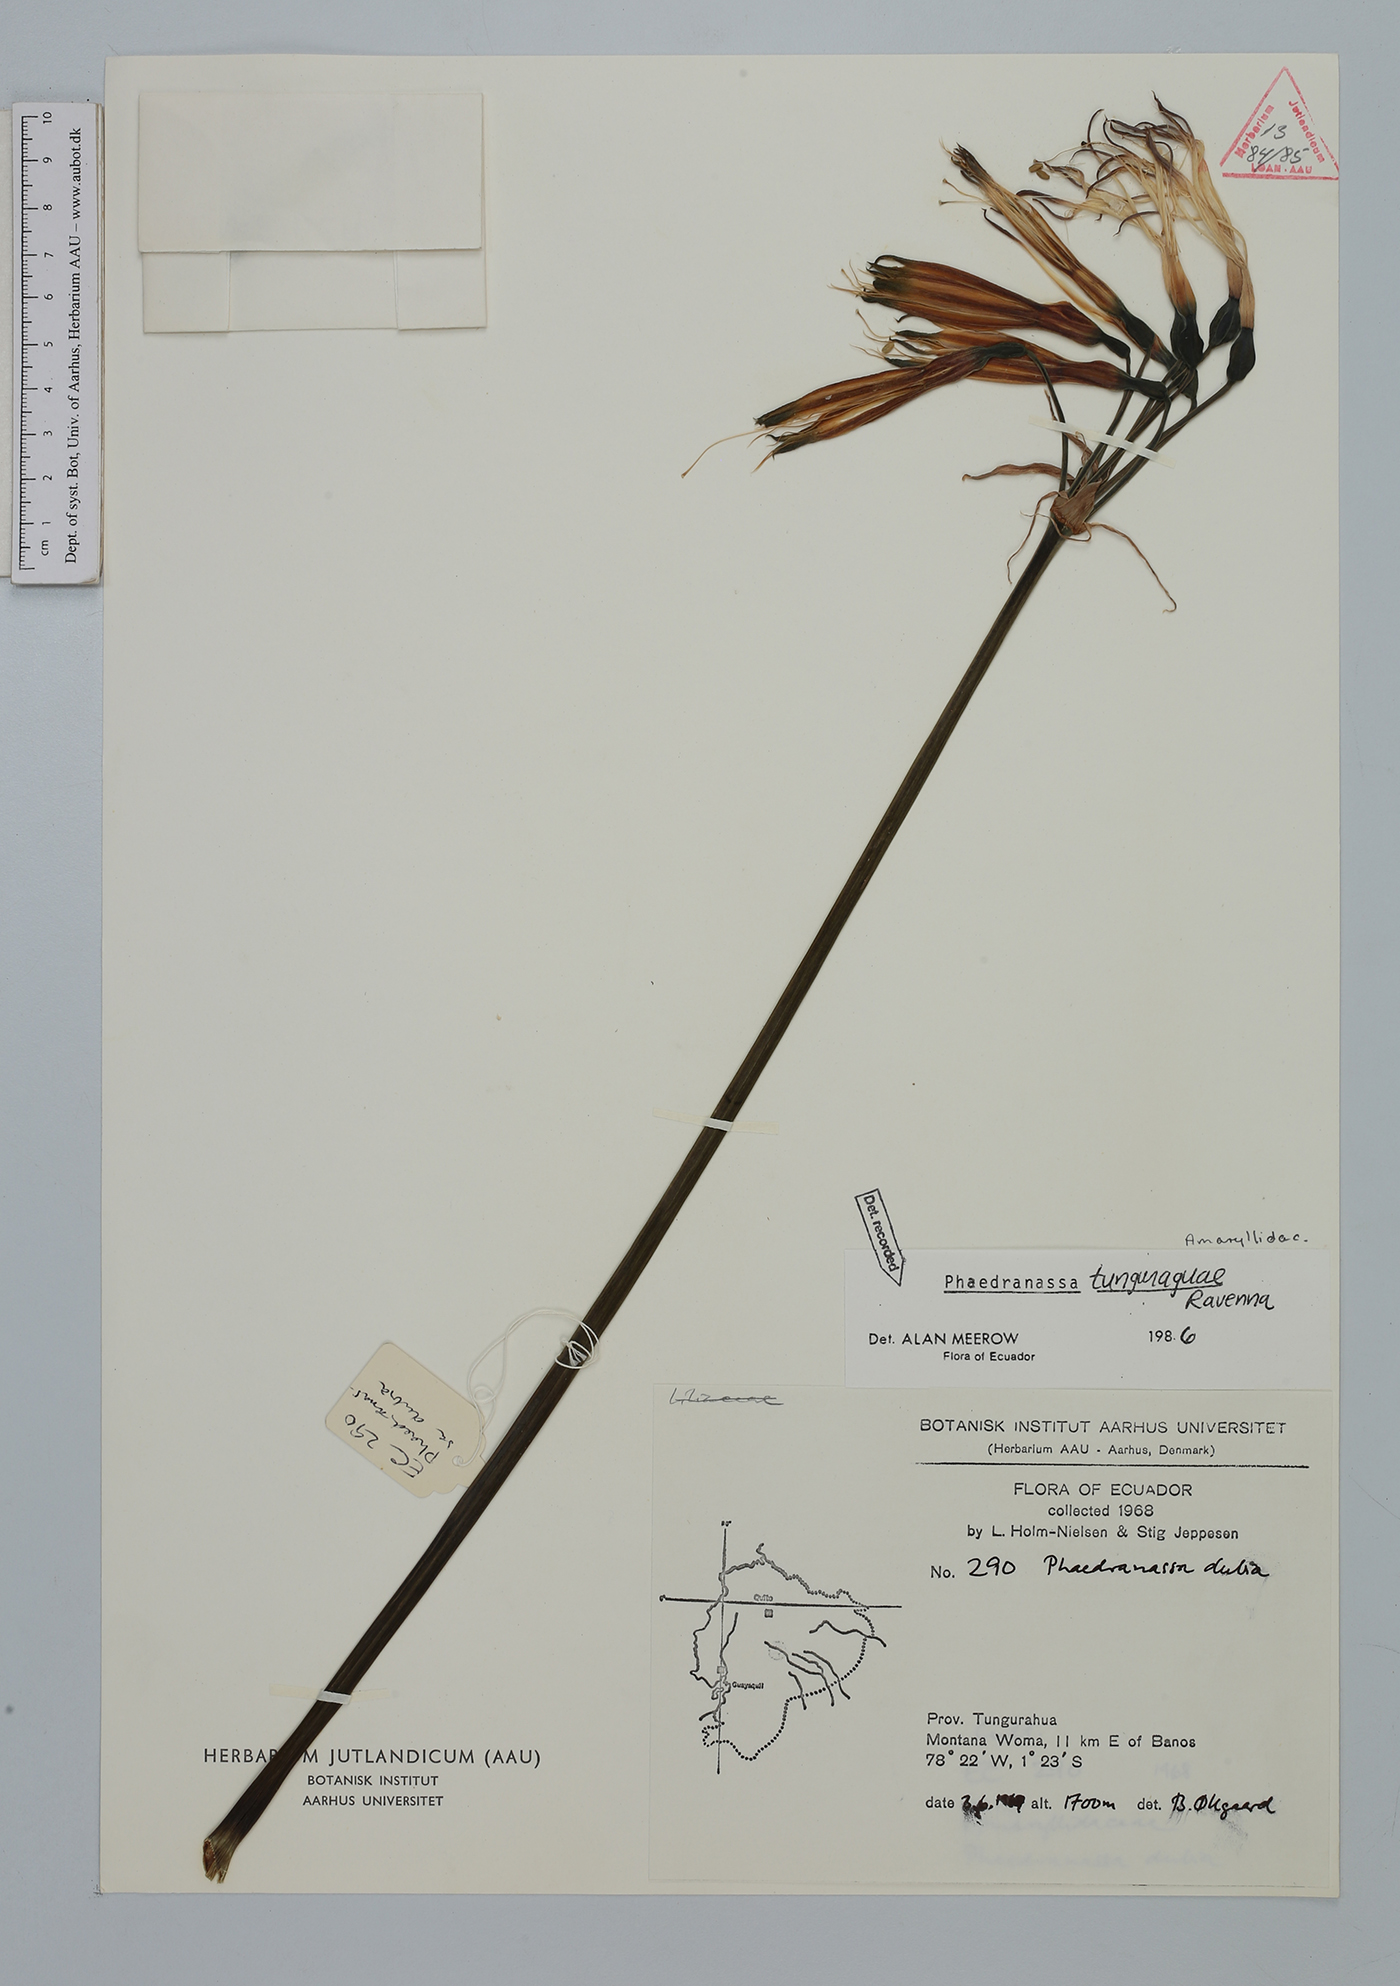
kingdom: Plantae
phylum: Tracheophyta
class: Liliopsida
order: Asparagales
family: Amaryllidaceae
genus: Phaedranassa
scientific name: Phaedranassa tunguraguae
